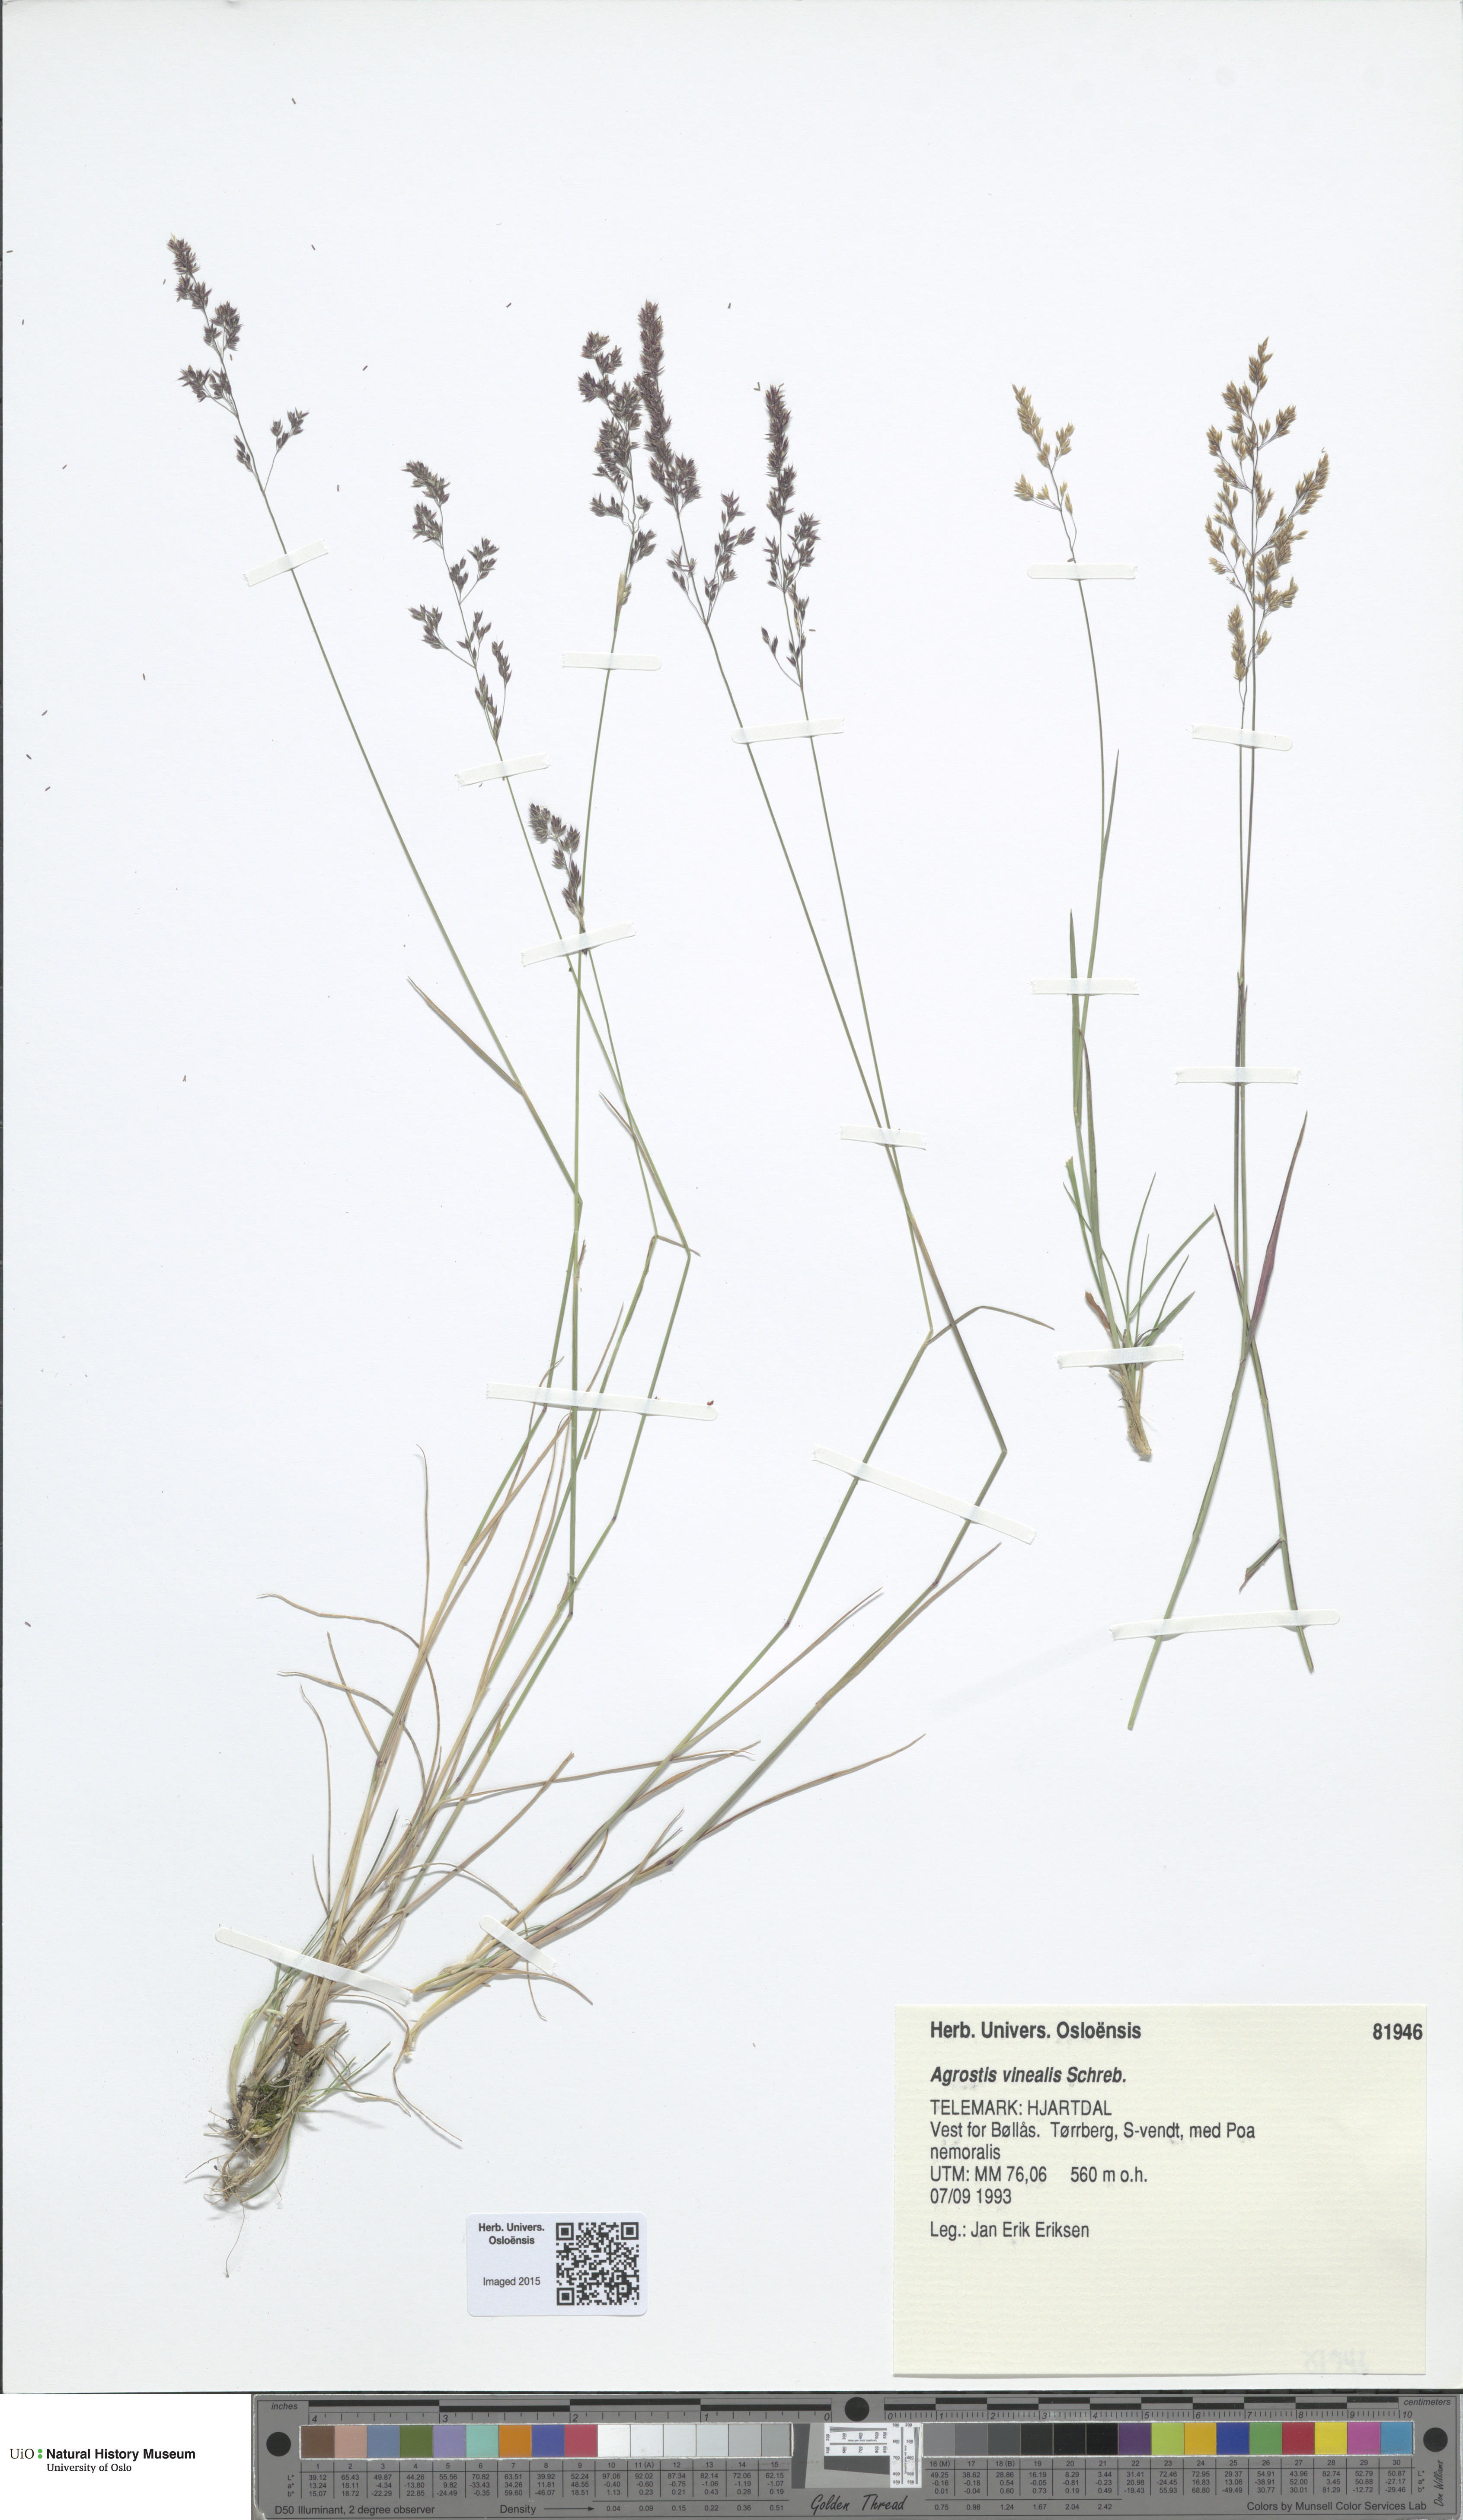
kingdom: Plantae
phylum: Tracheophyta
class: Liliopsida
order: Poales
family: Poaceae
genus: Agrostis
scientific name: Agrostis vinealis
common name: Brown bent
